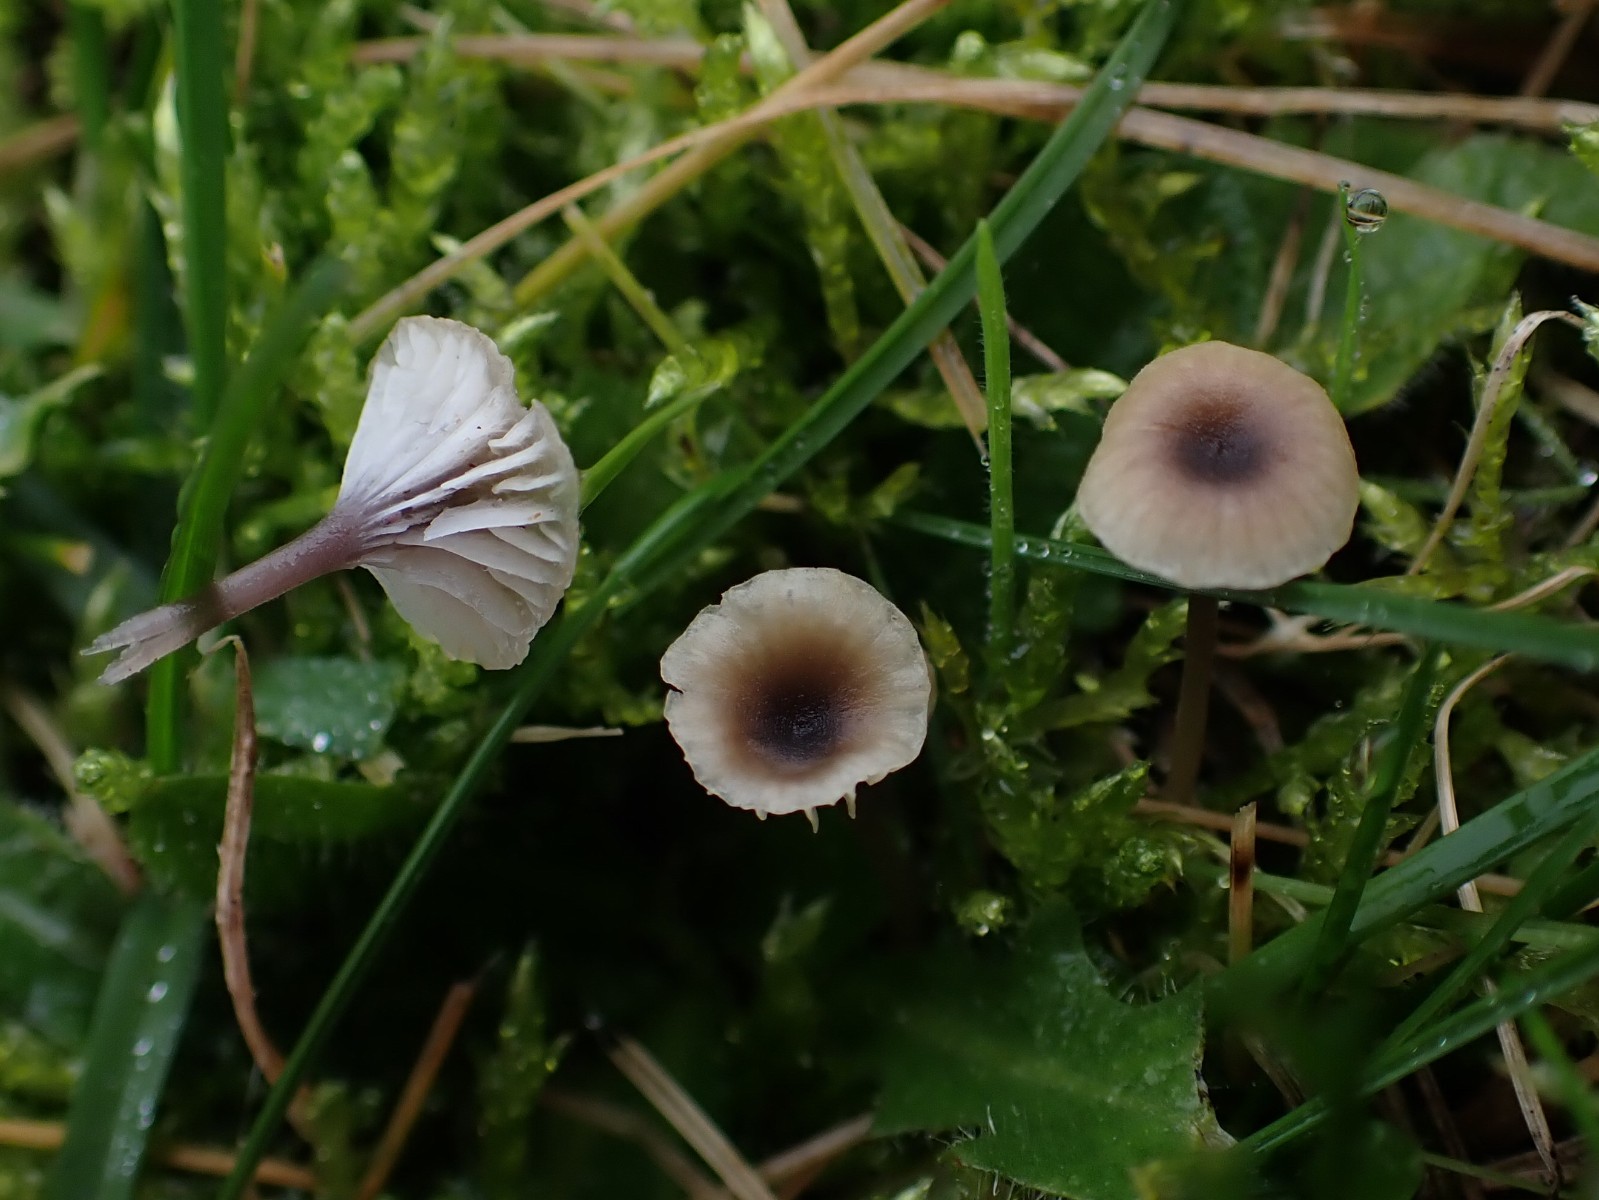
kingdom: Fungi
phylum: Basidiomycota
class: Agaricomycetes
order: Hymenochaetales
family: Rickenellaceae
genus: Rickenella
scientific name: Rickenella swartzii
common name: finstokket mosnavlehat
